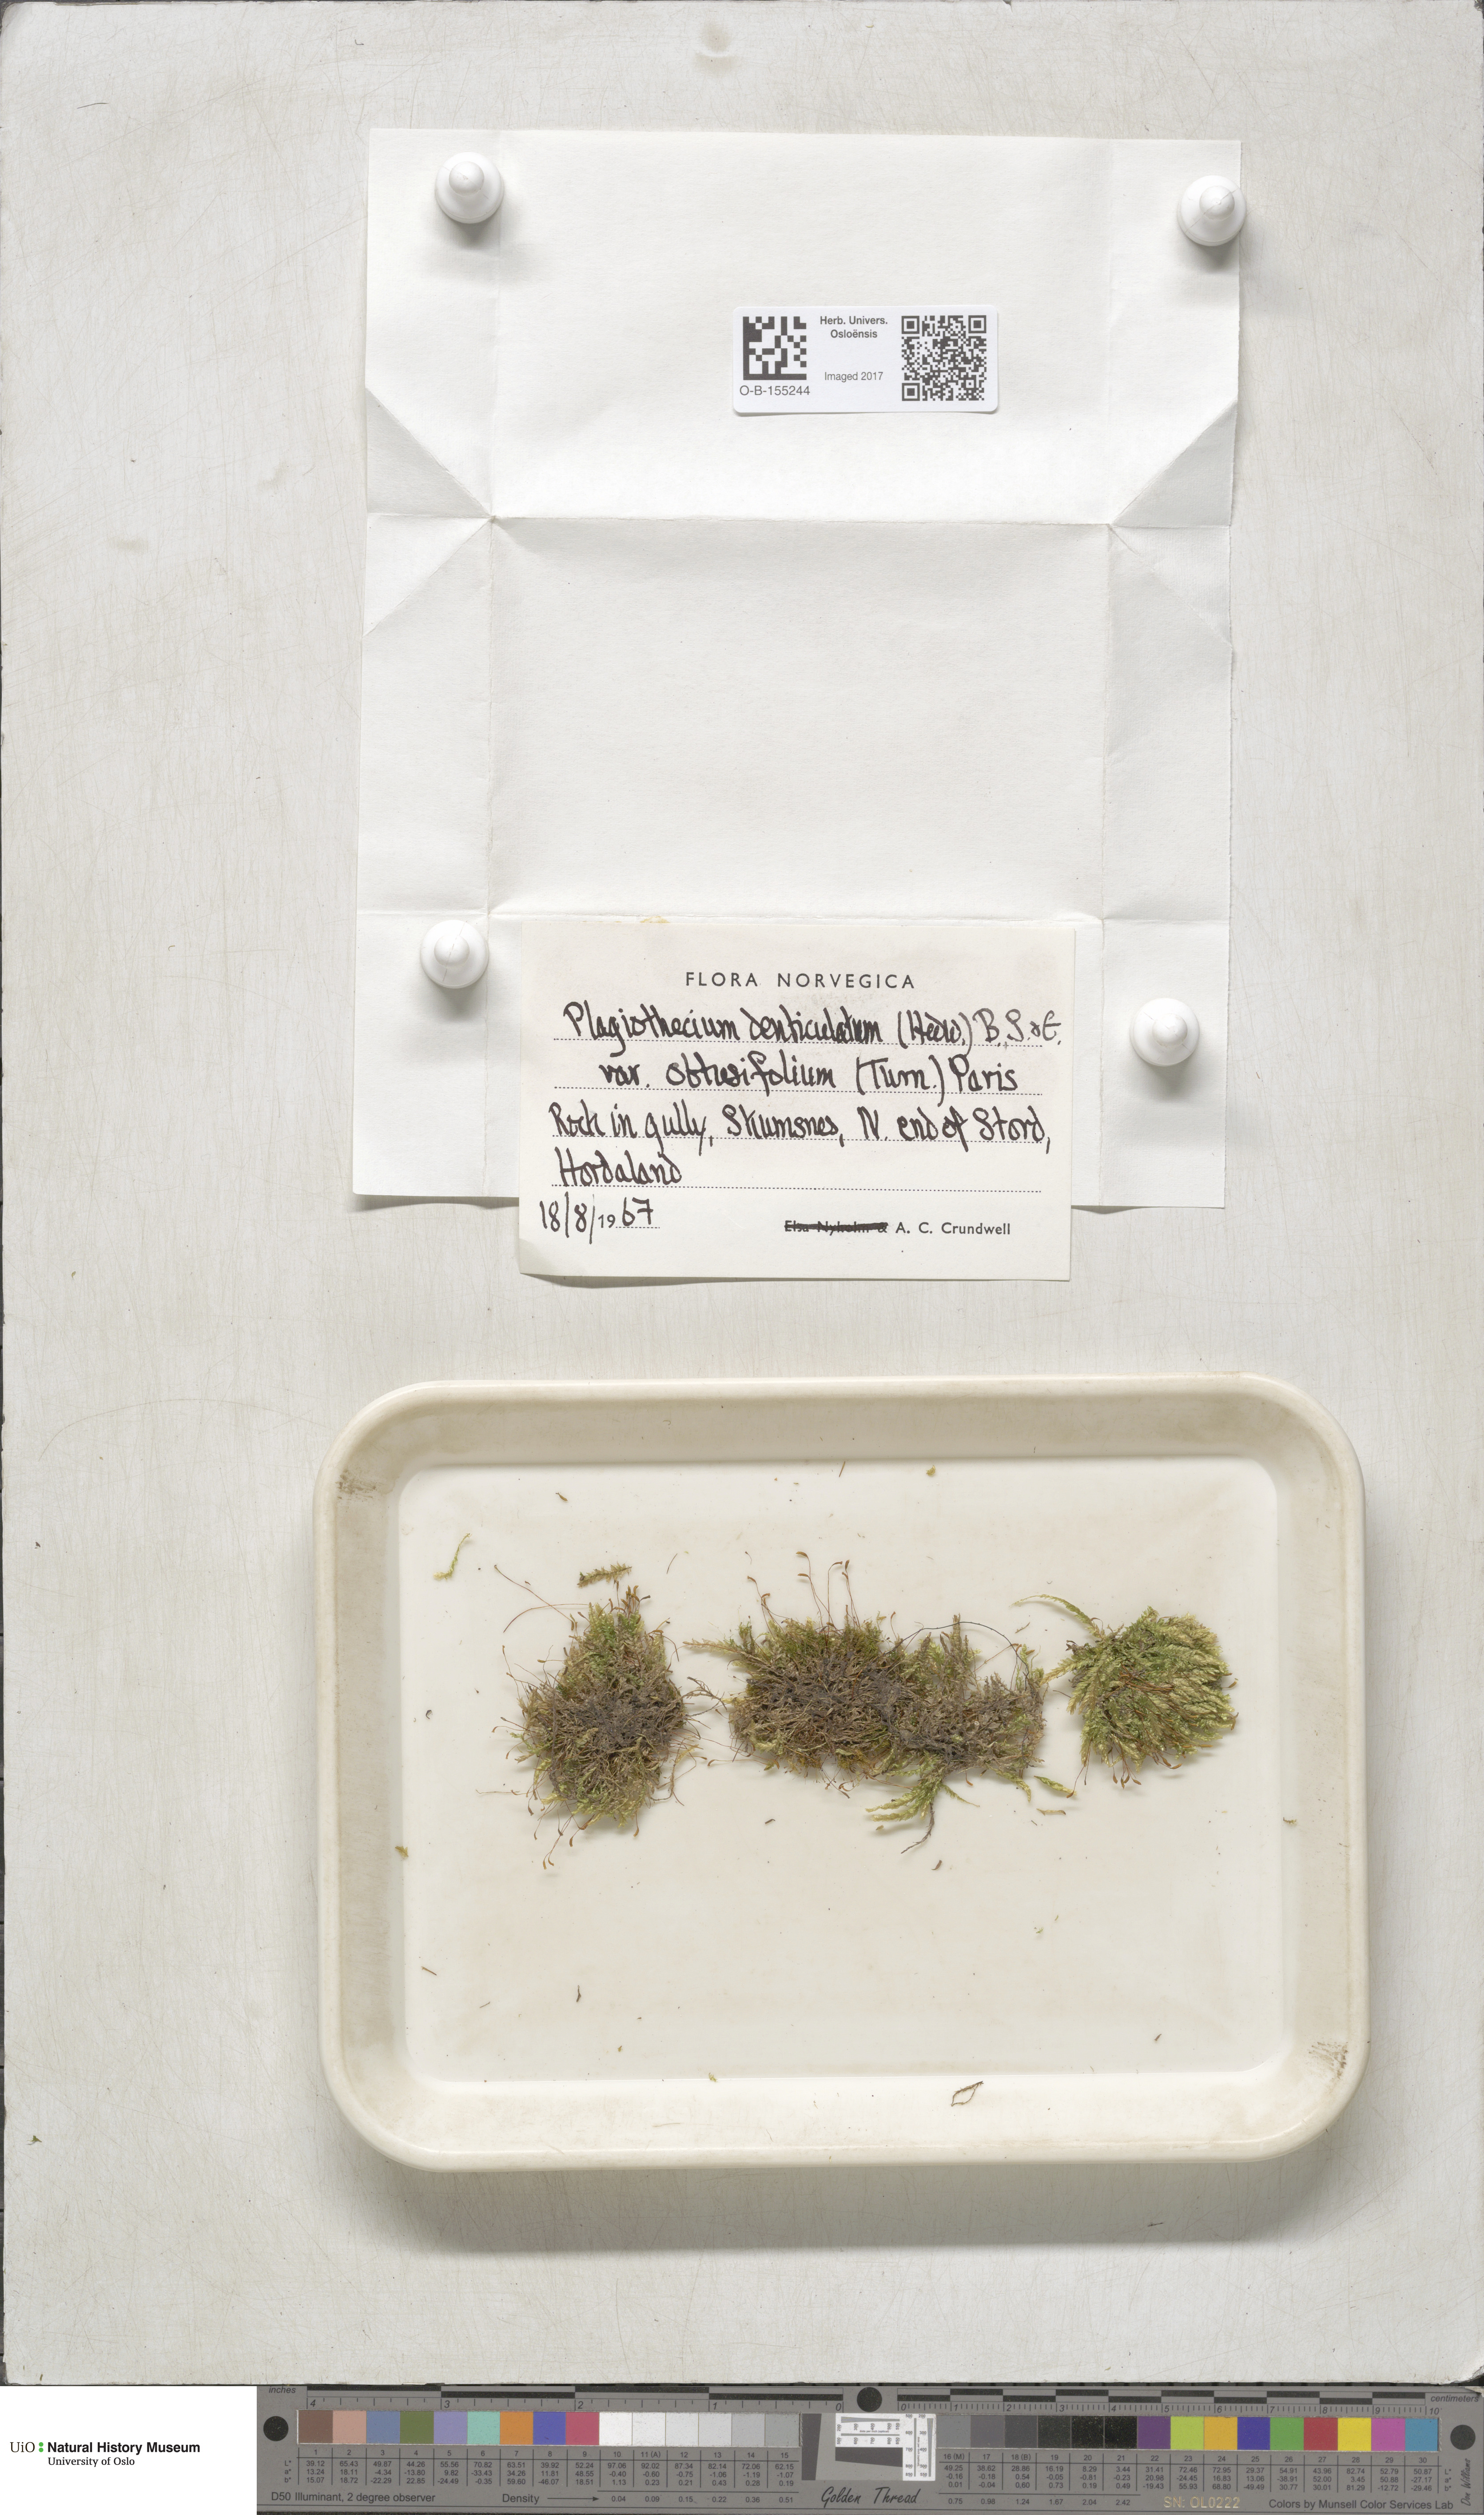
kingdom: Plantae
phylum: Bryophyta
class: Bryopsida
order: Hypnales
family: Plagiotheciaceae
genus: Plagiothecium
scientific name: Plagiothecium denticulatum
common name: Dented silk moss
